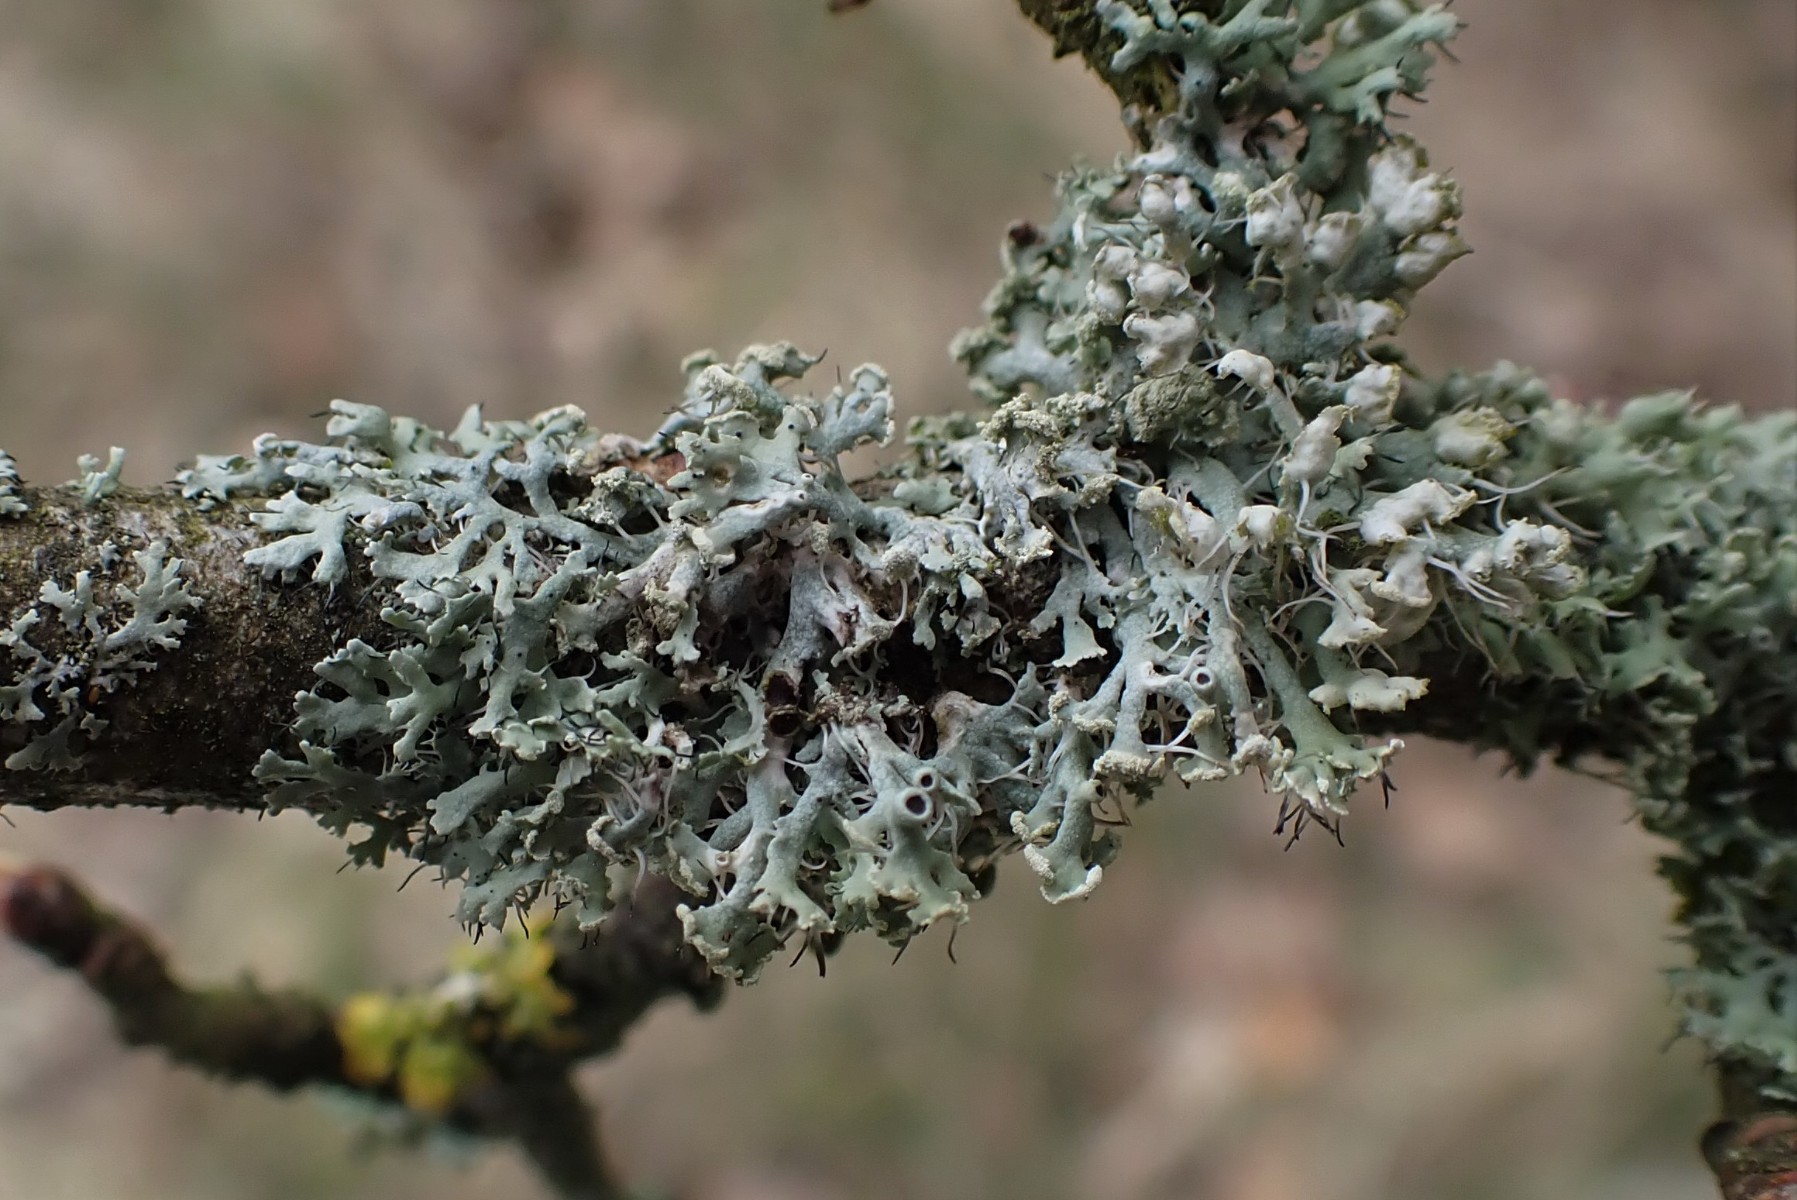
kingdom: Fungi
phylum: Ascomycota
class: Lecanoromycetes
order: Caliciales
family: Physciaceae
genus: Physcia
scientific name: Physcia tenella
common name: spæd rosetlav
